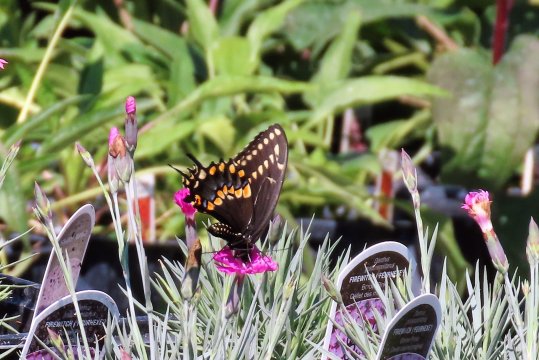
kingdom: Animalia
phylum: Arthropoda
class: Insecta
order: Lepidoptera
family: Papilionidae
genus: Papilio
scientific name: Papilio polyxenes
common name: Black Swallowtail
